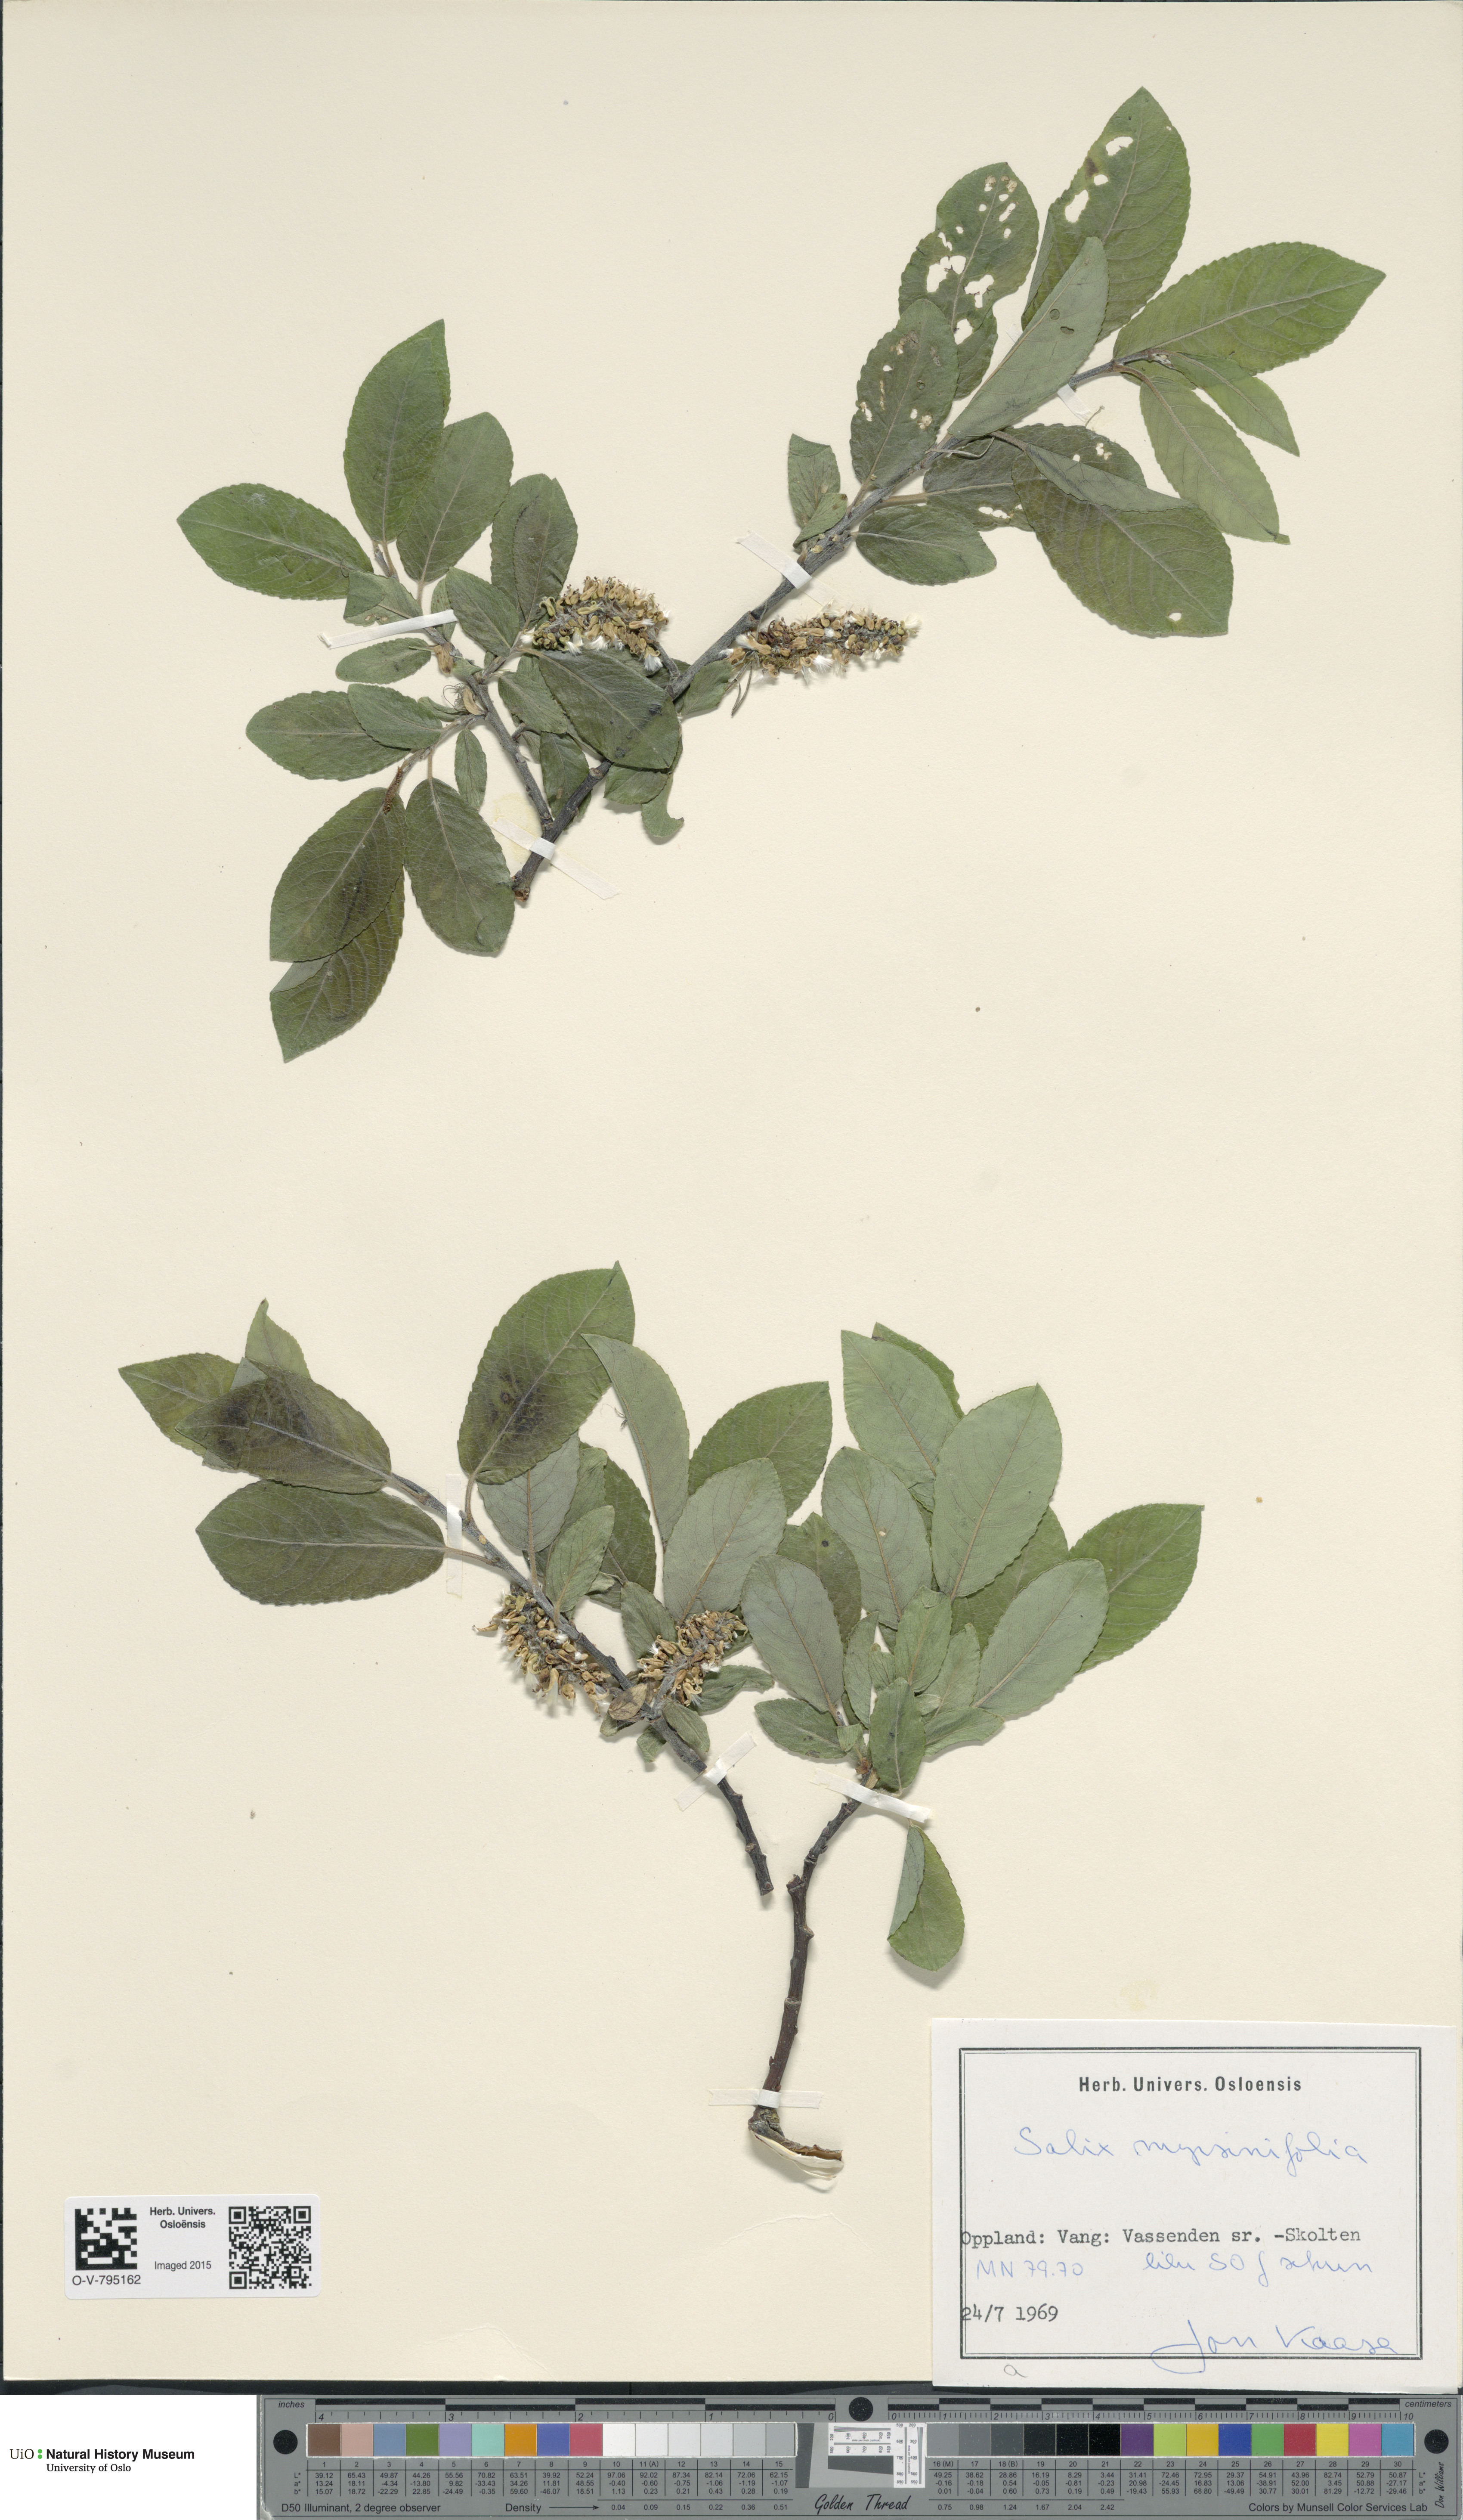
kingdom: Plantae
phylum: Tracheophyta
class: Magnoliopsida
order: Malpighiales
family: Salicaceae
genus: Salix
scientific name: Salix myrsinifolia
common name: Dark-leaved willow
